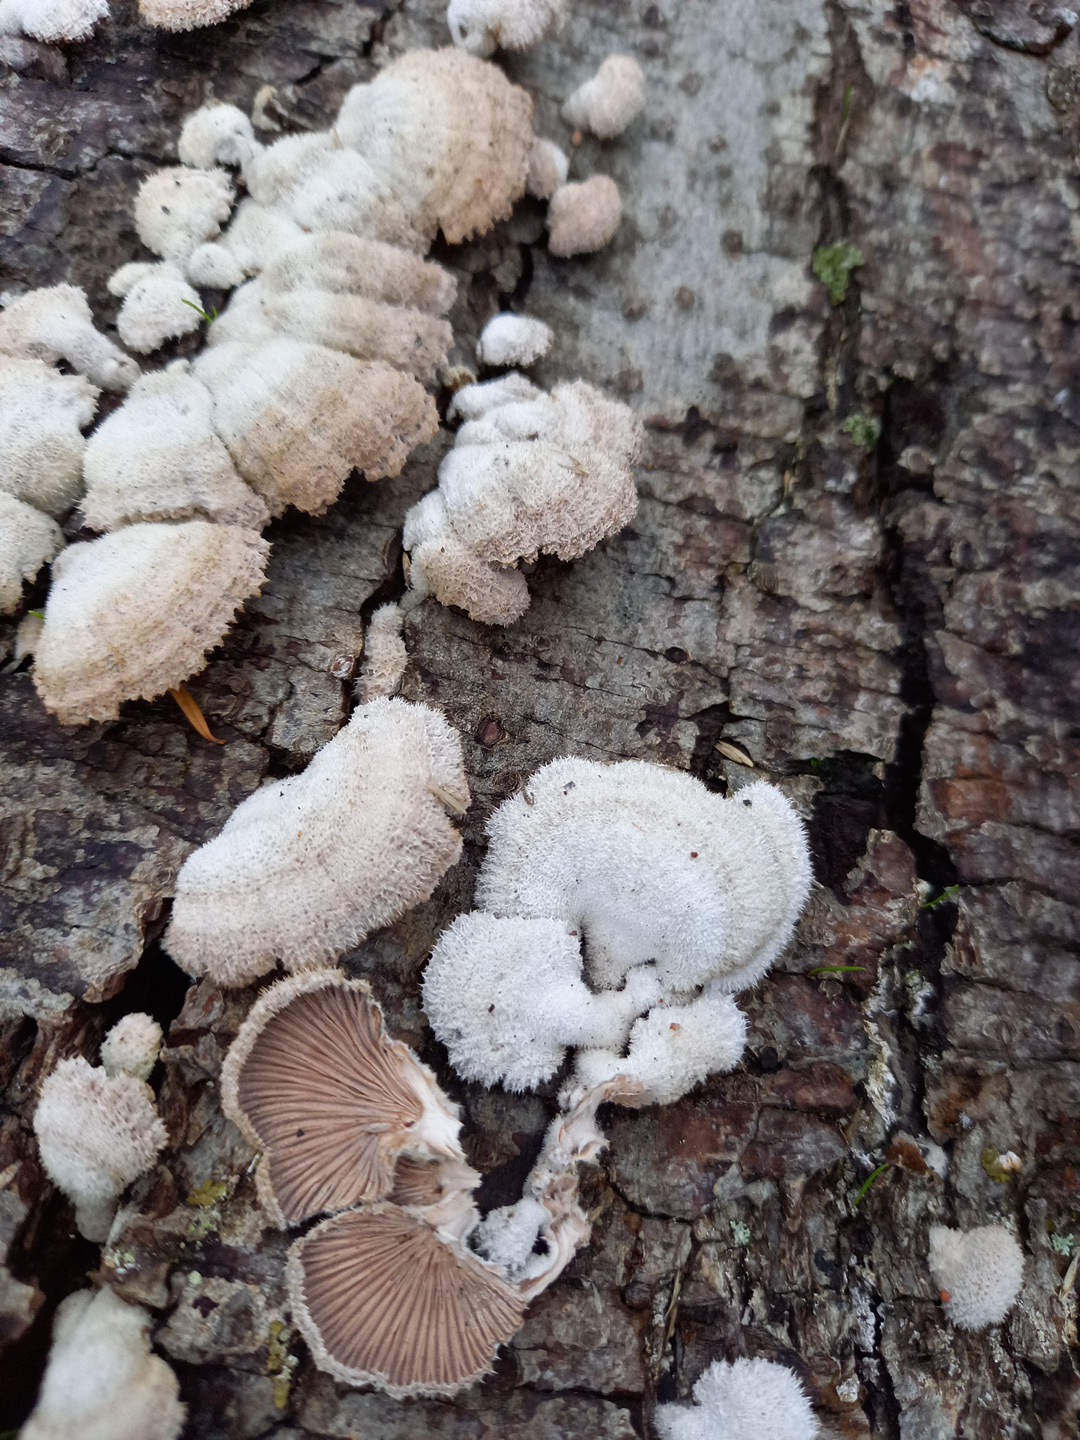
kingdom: Fungi
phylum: Basidiomycota
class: Agaricomycetes
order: Agaricales
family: Schizophyllaceae
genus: Schizophyllum
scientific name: Schizophyllum commune
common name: kløvblad
